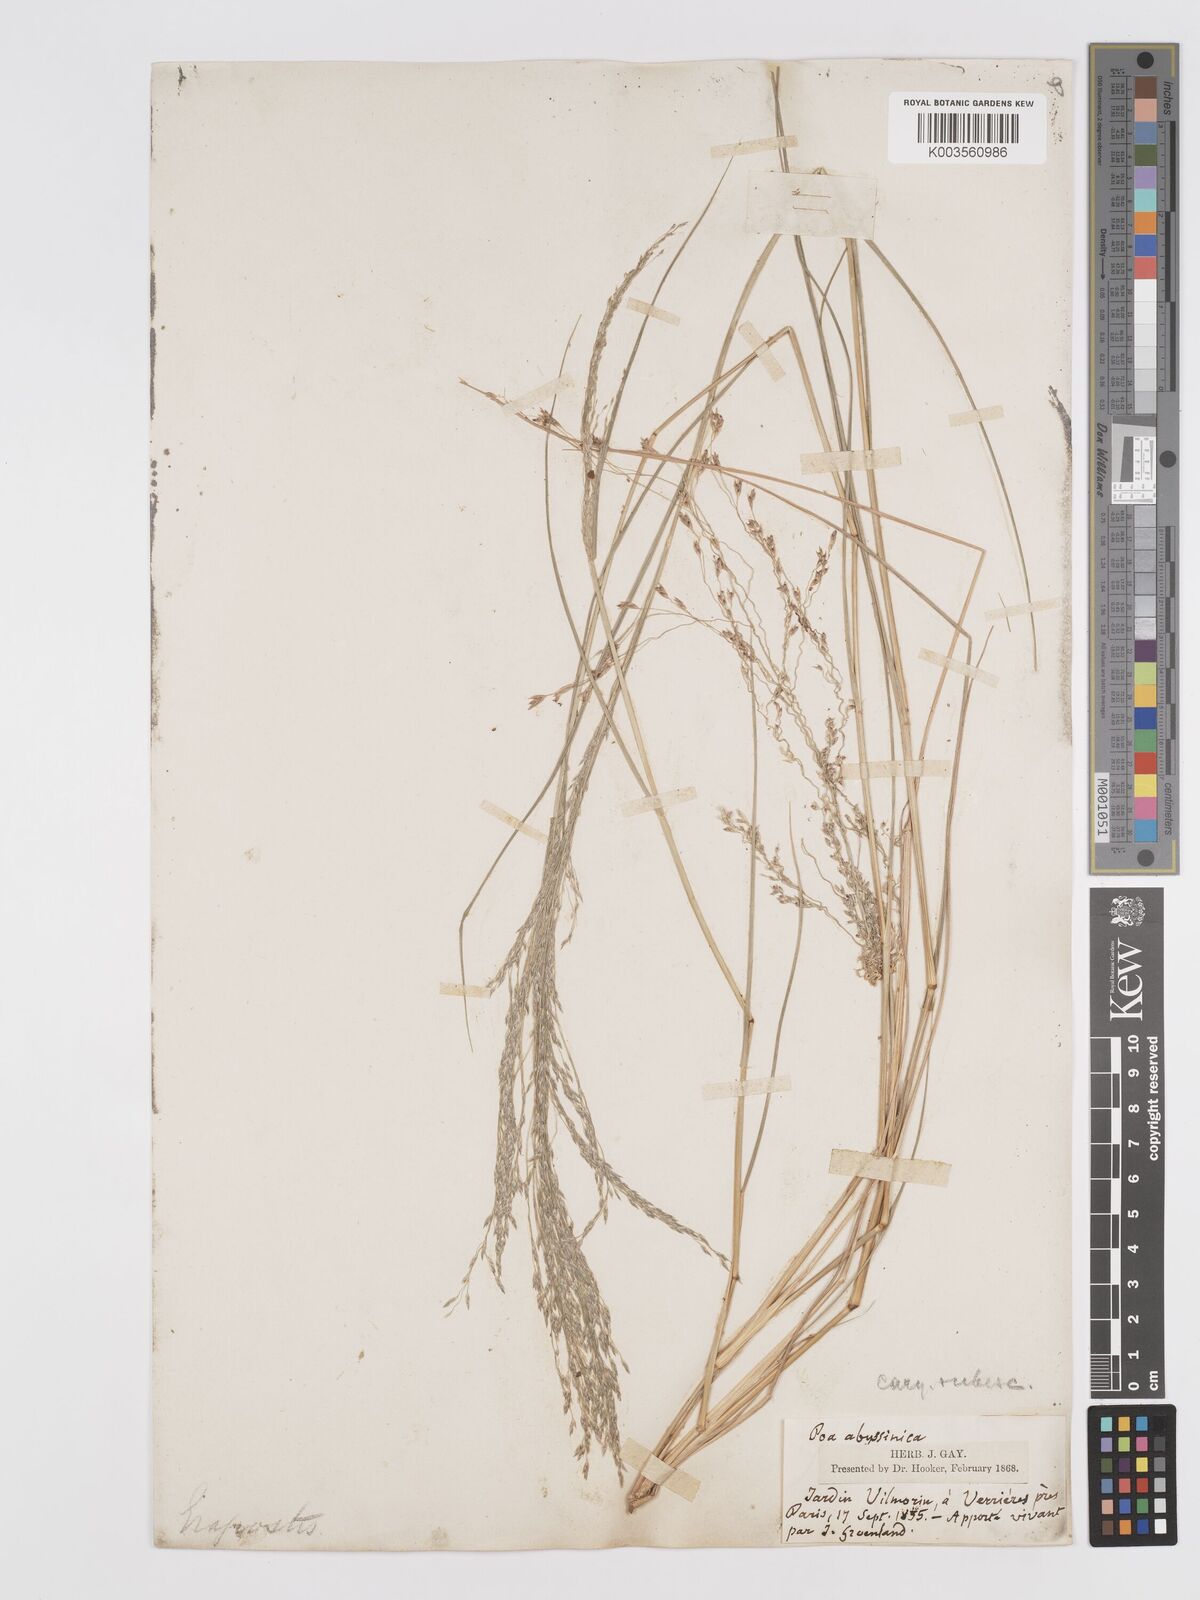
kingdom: Plantae
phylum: Tracheophyta
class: Liliopsida
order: Poales
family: Poaceae
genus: Eragrostis
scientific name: Eragrostis tef
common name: Teff
